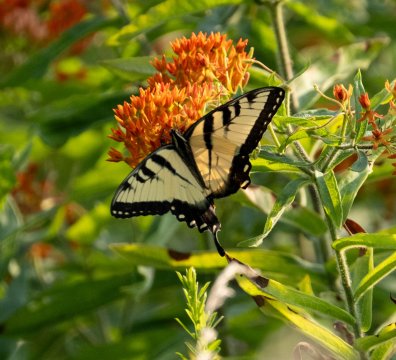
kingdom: Animalia
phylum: Arthropoda
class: Insecta
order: Lepidoptera
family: Papilionidae
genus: Pterourus
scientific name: Pterourus glaucus
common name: Eastern Tiger Swallowtail
